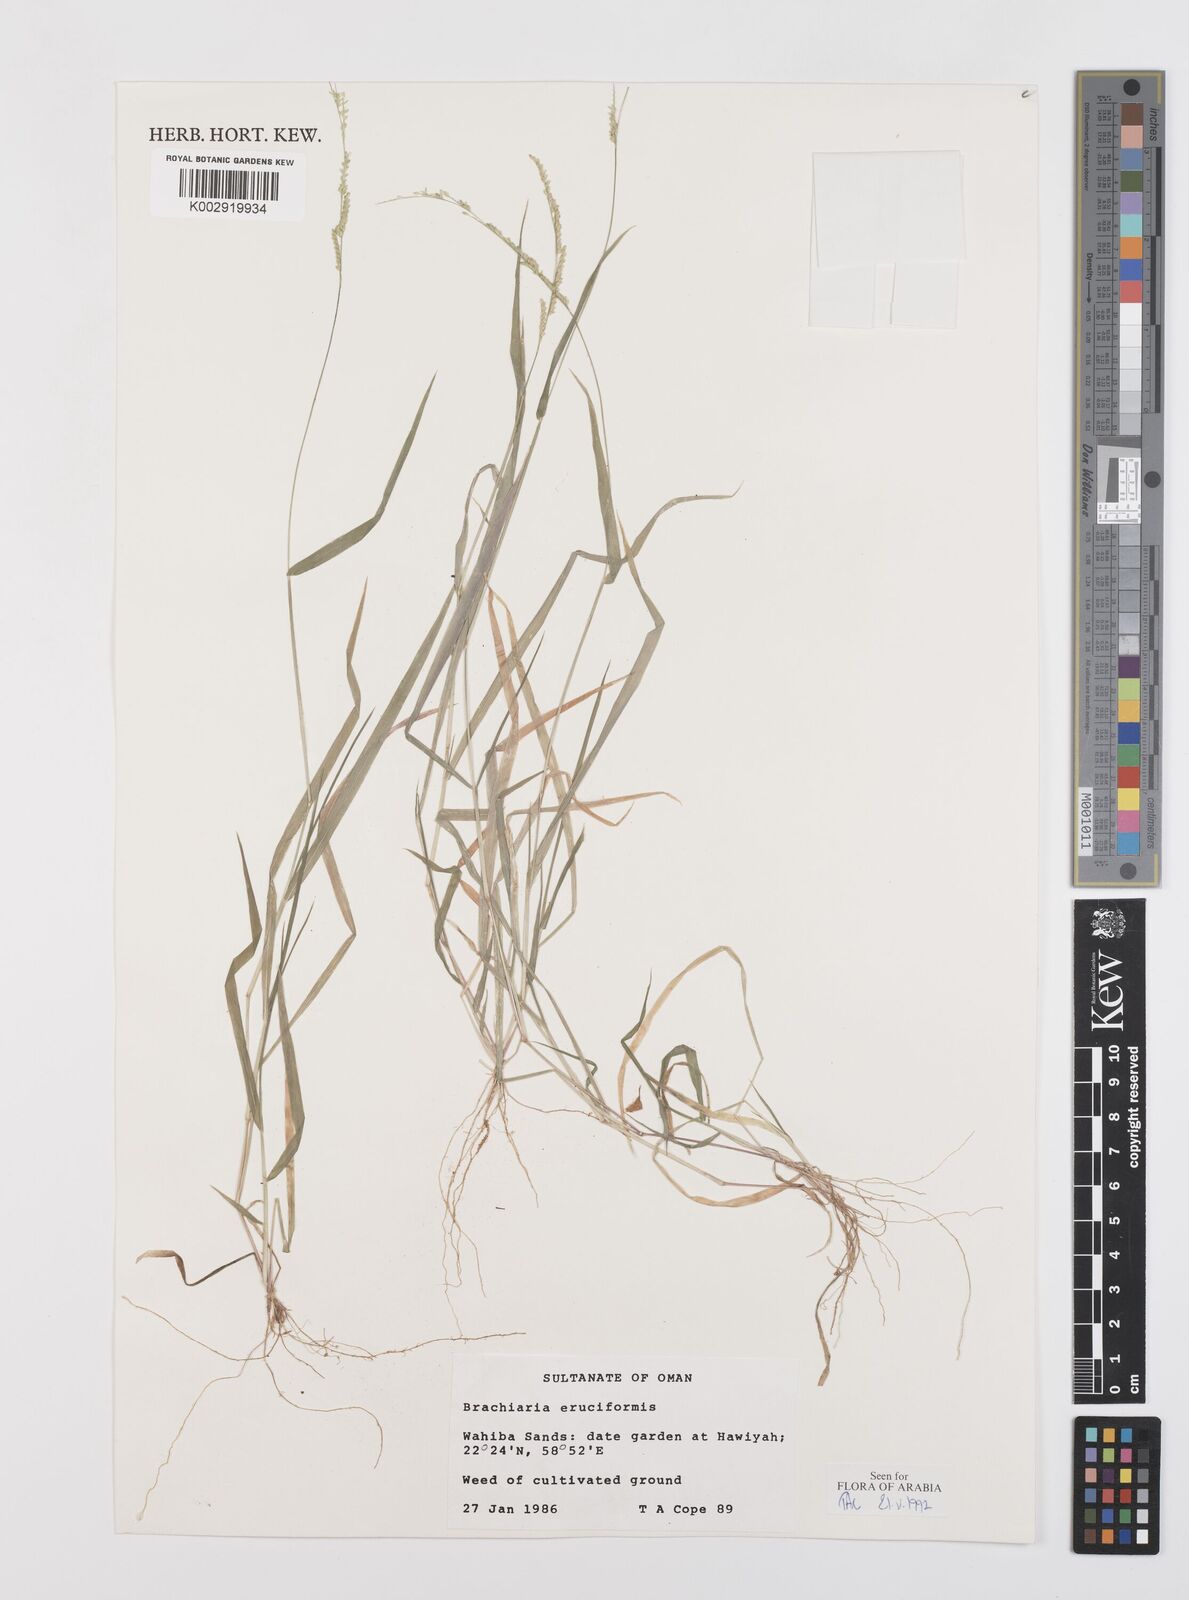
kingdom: Plantae
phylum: Tracheophyta
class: Liliopsida
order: Poales
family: Poaceae
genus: Moorochloa
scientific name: Moorochloa eruciformis
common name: Sweet signalgrass
